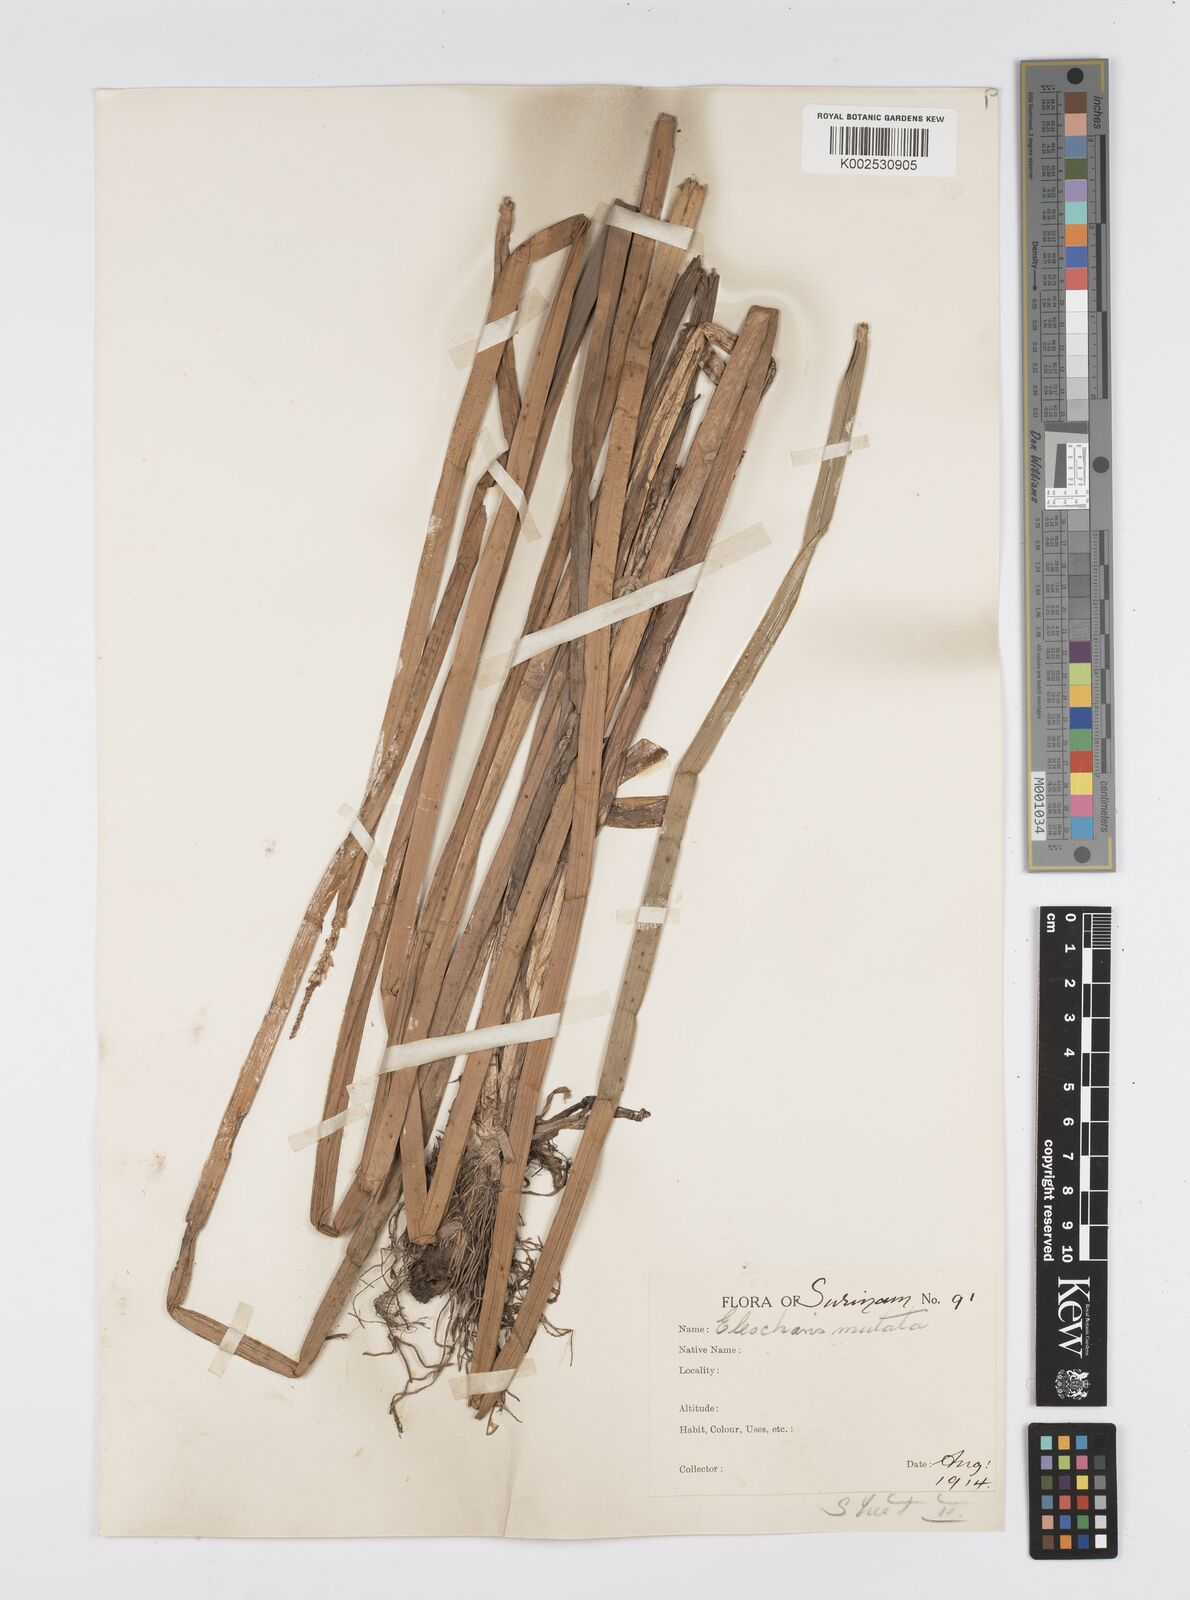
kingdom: Plantae
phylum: Tracheophyta
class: Liliopsida
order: Poales
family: Cyperaceae
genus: Eleocharis
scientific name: Eleocharis mutata
